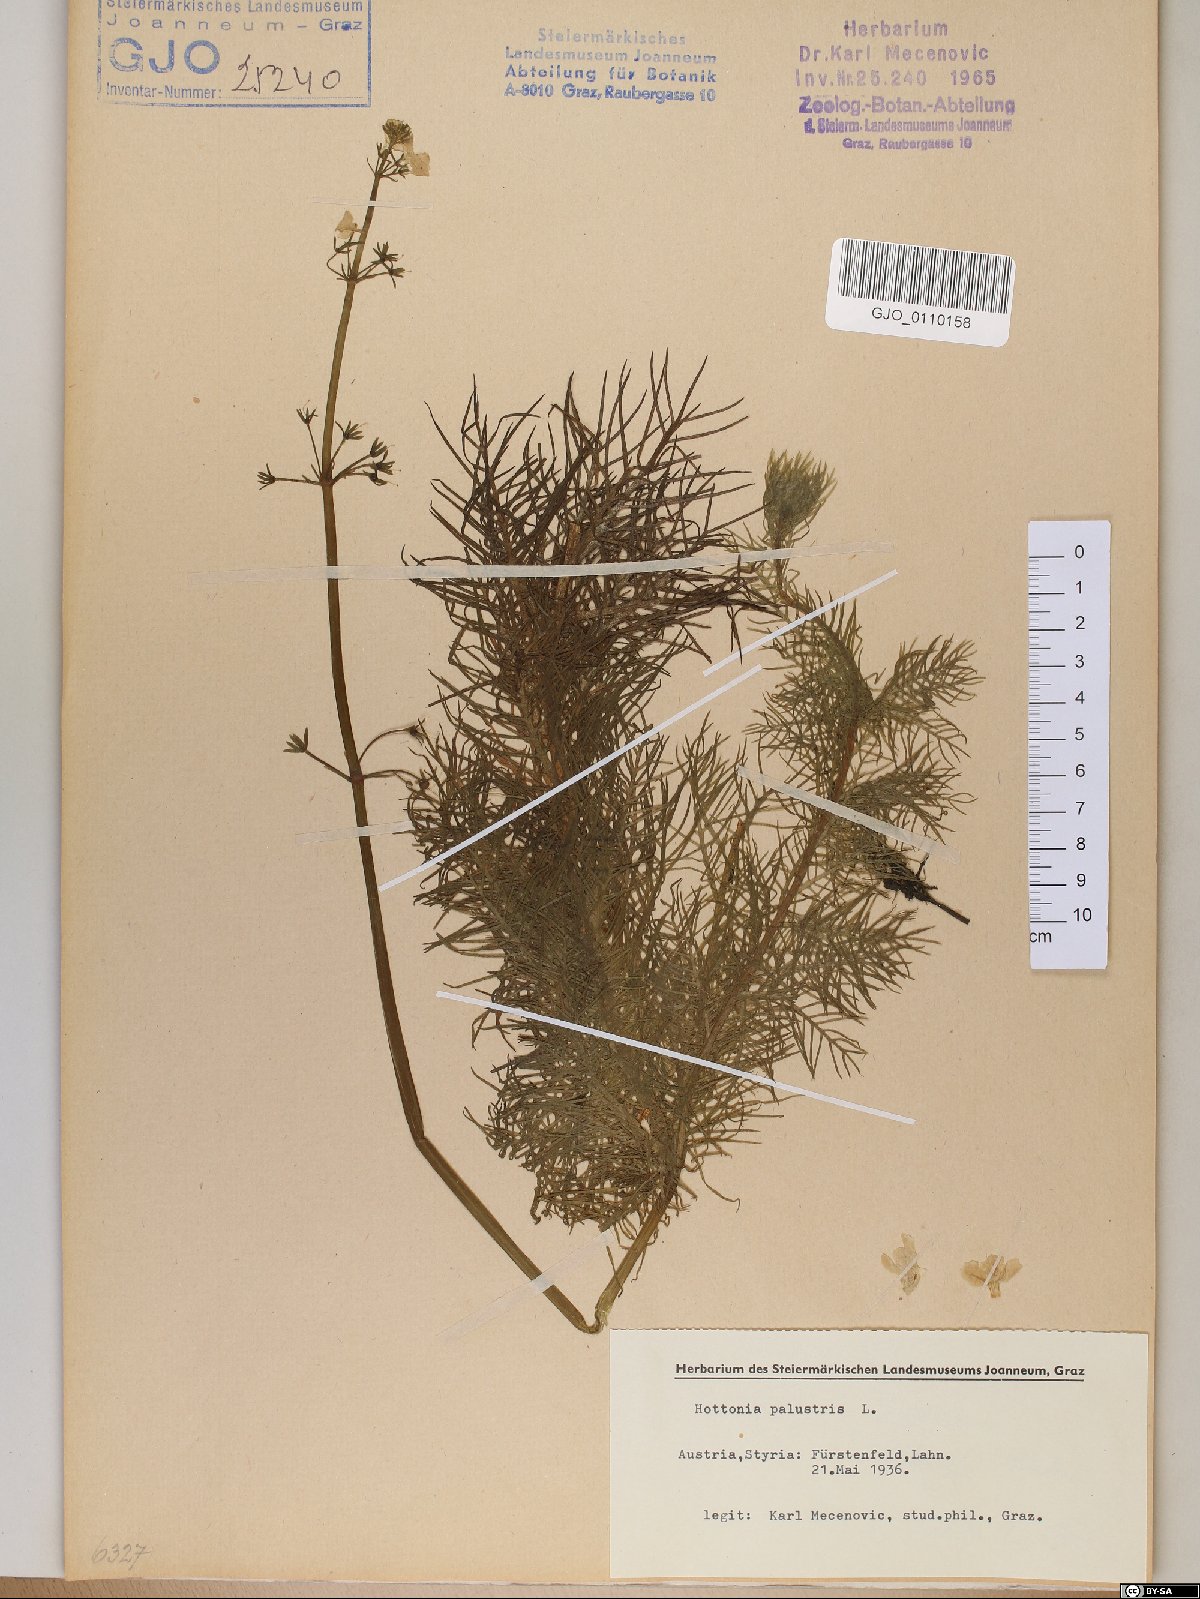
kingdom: Plantae
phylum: Tracheophyta
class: Magnoliopsida
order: Ericales
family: Primulaceae
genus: Hottonia
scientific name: Hottonia palustris
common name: Water-violet
